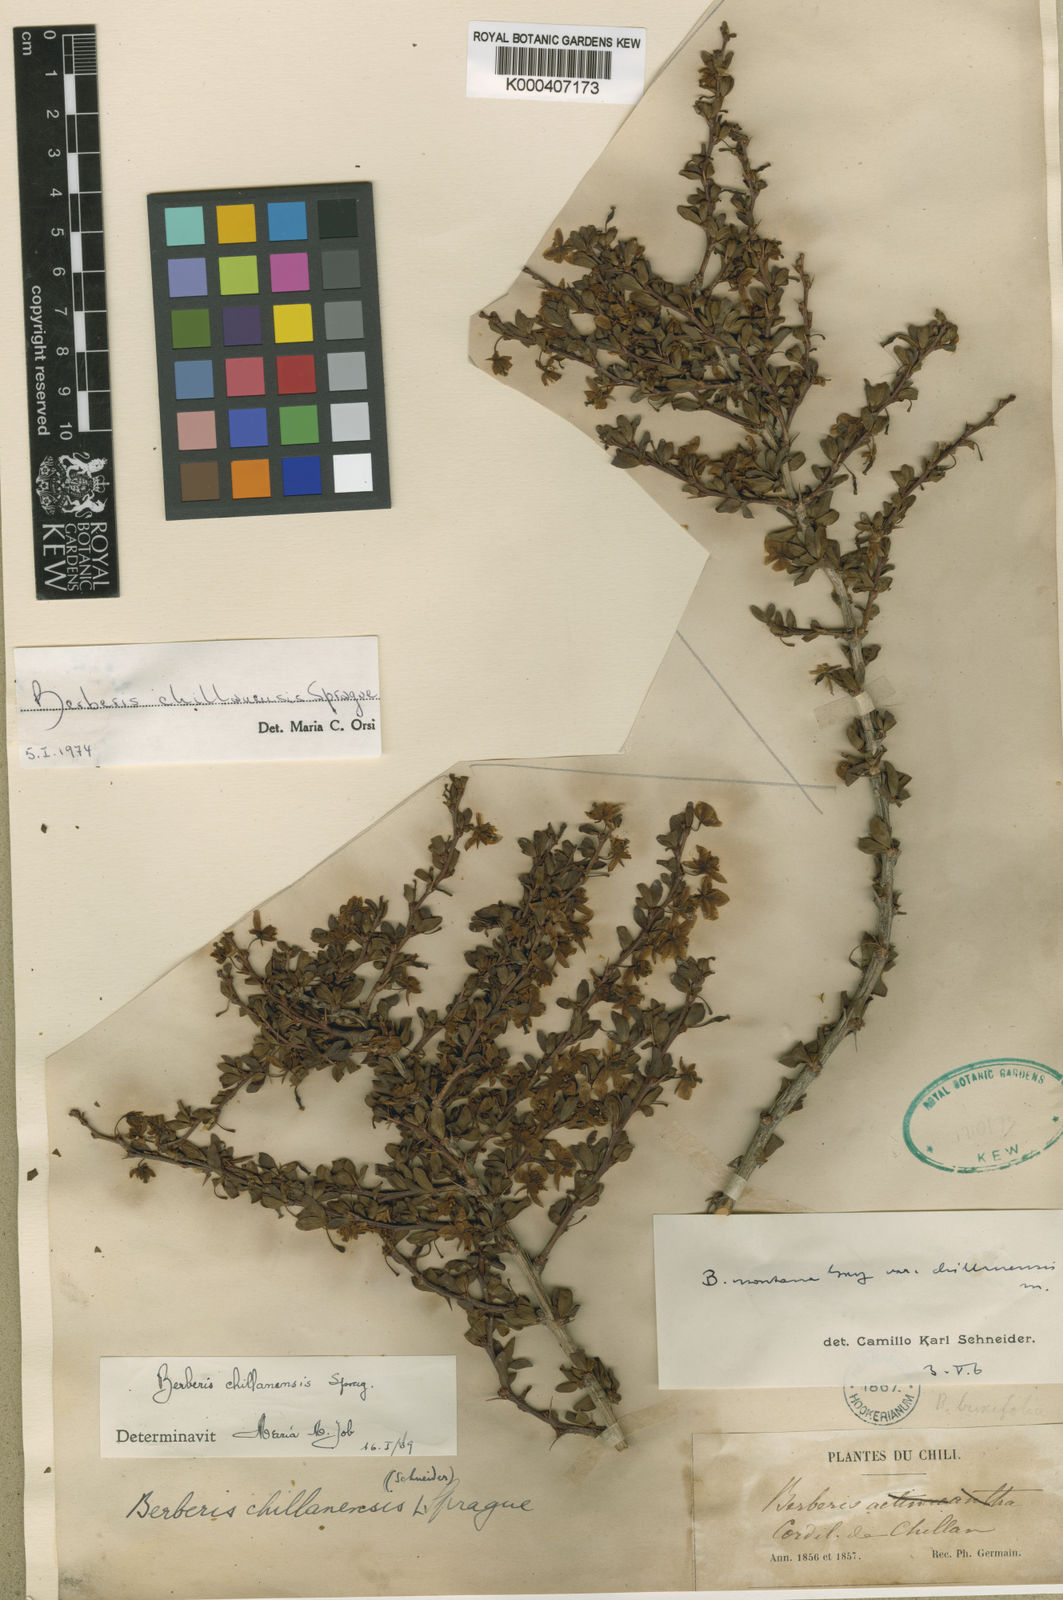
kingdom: Plantae
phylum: Tracheophyta
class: Magnoliopsida
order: Ranunculales
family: Berberidaceae
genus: Berberis
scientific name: Berberis montana
